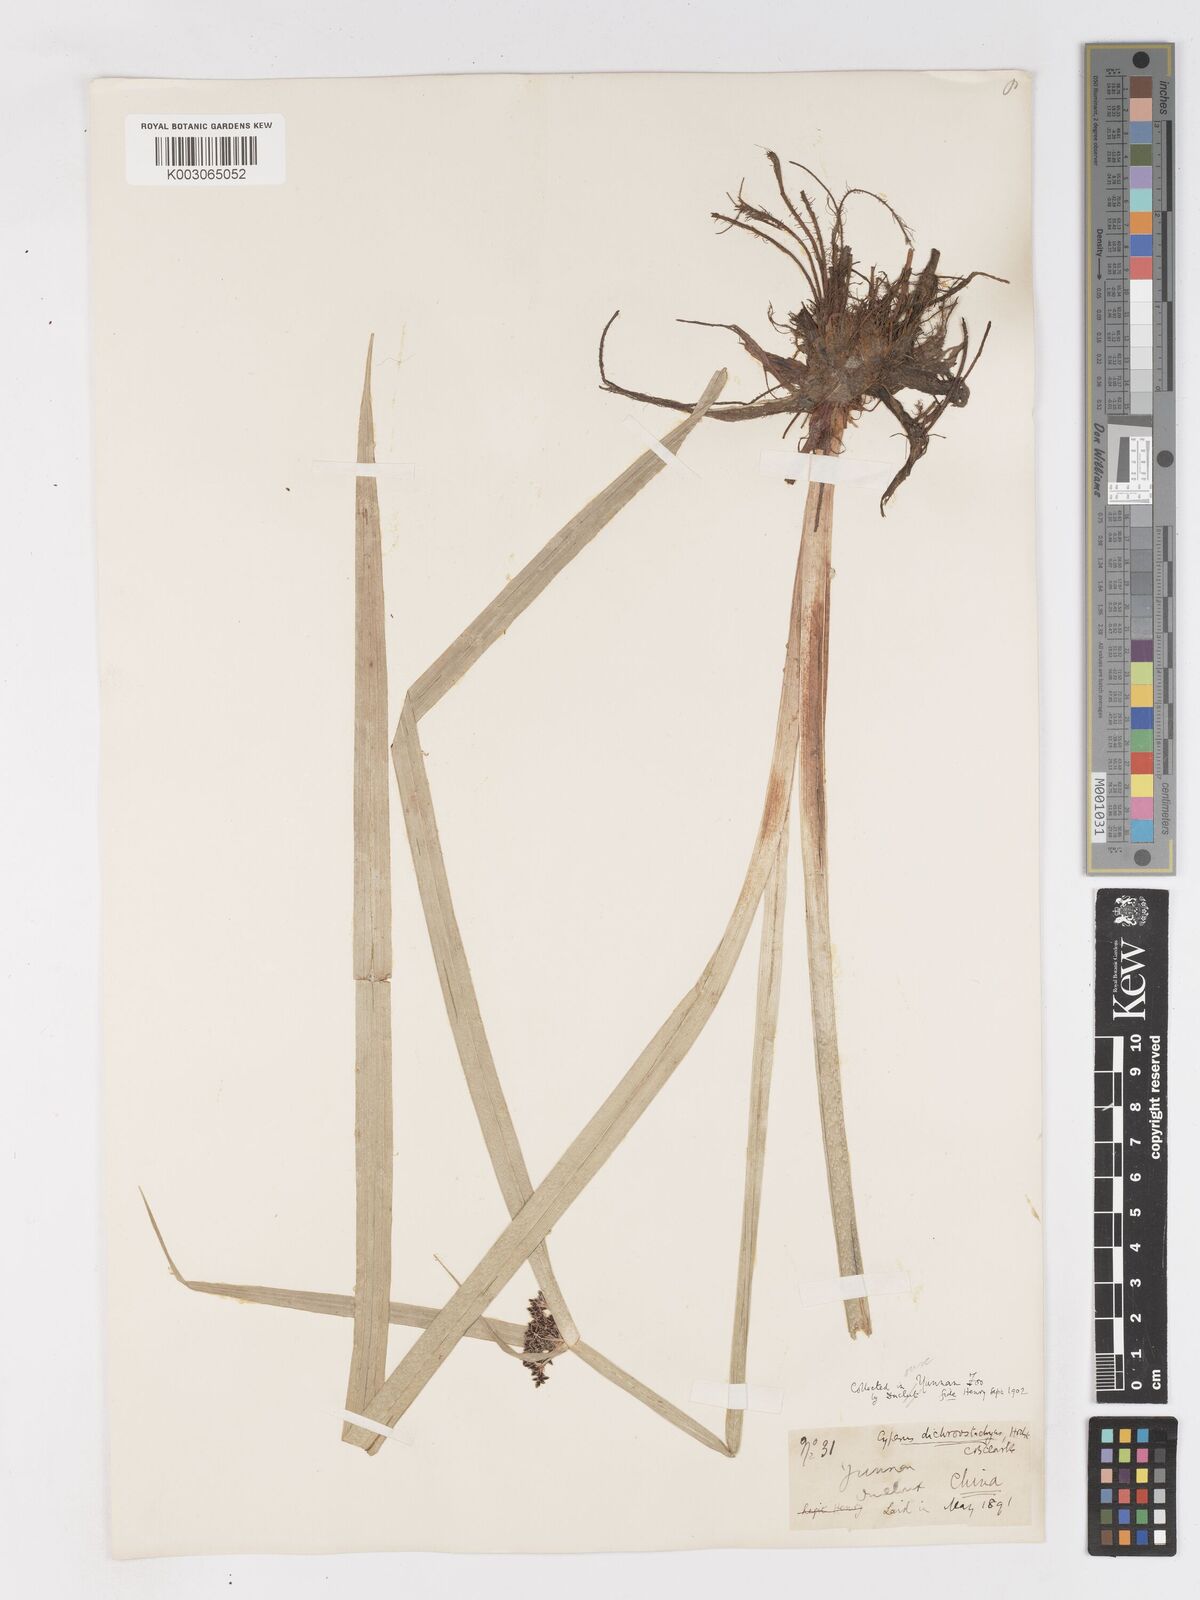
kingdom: Plantae
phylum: Tracheophyta
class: Liliopsida
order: Poales
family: Cyperaceae
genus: Cyperus
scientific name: Cyperus dichrostachyus
